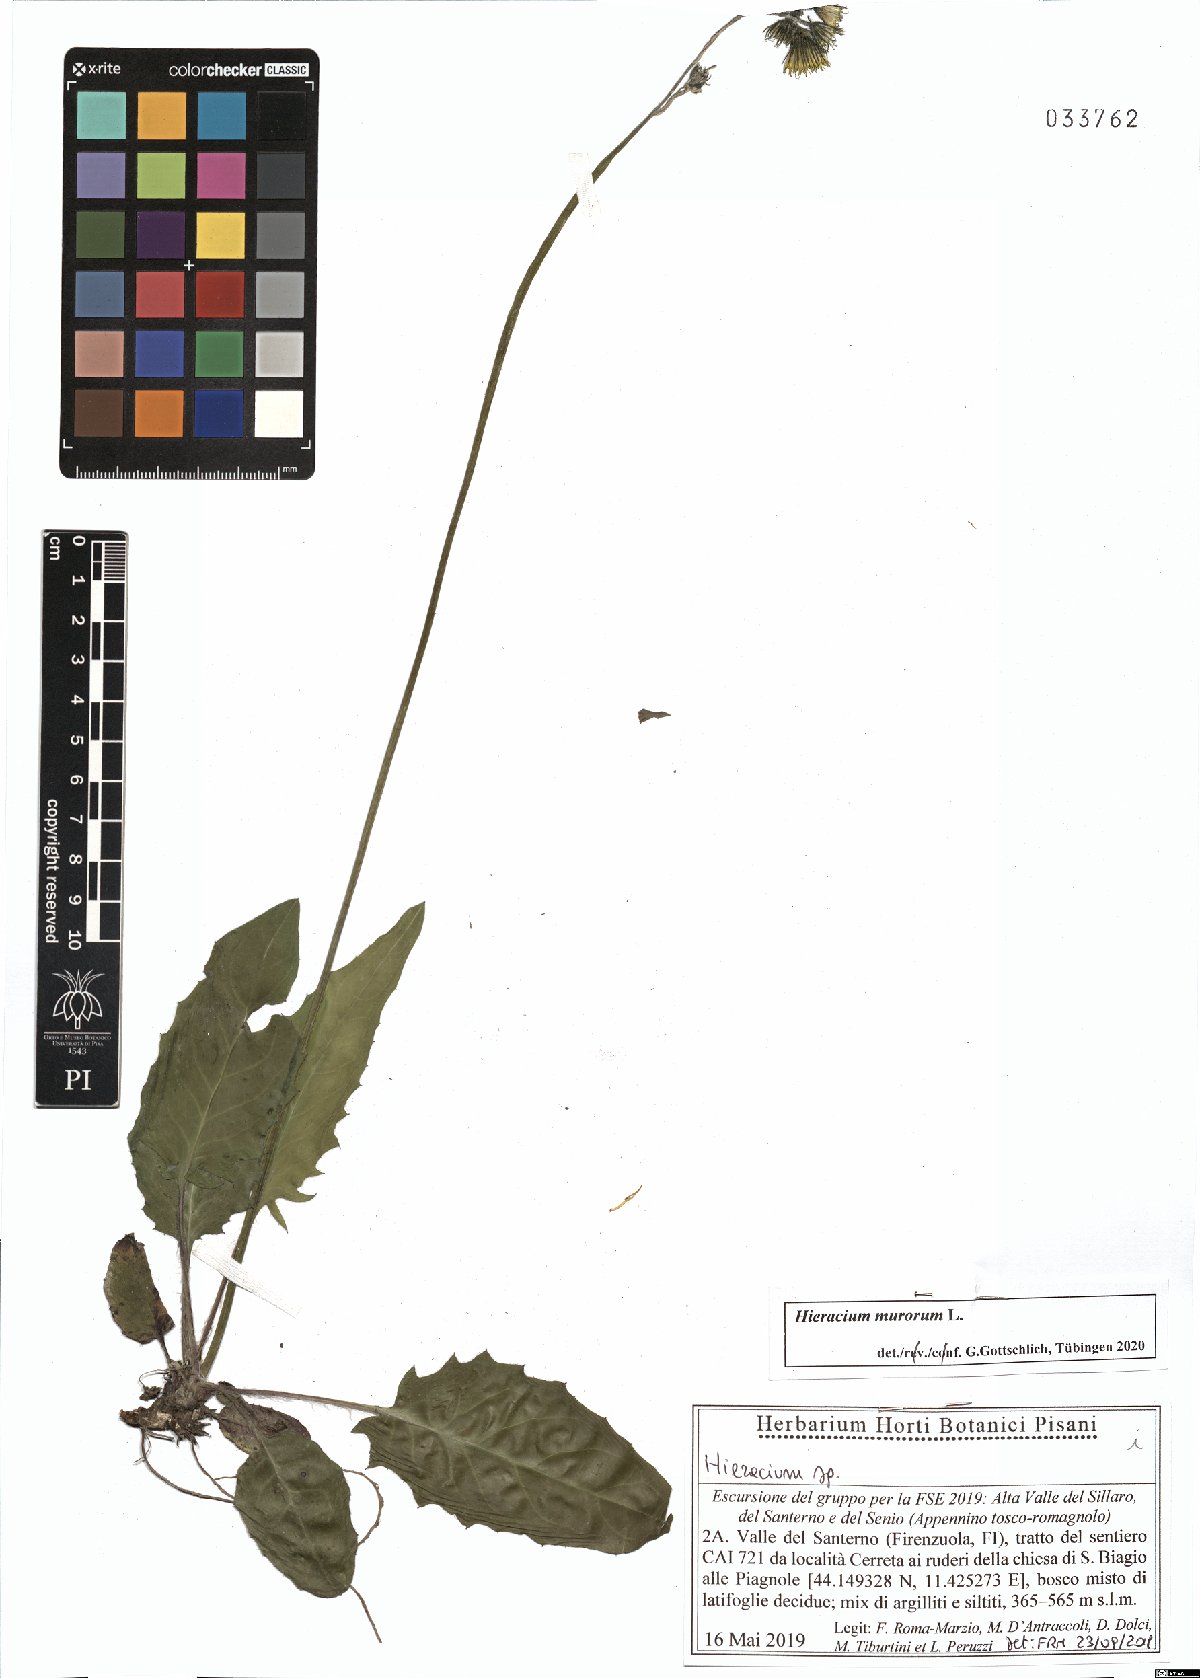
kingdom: Plantae
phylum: Tracheophyta
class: Magnoliopsida
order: Asterales
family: Asteraceae
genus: Hieracium
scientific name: Hieracium murorum
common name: Wall hawkweed
